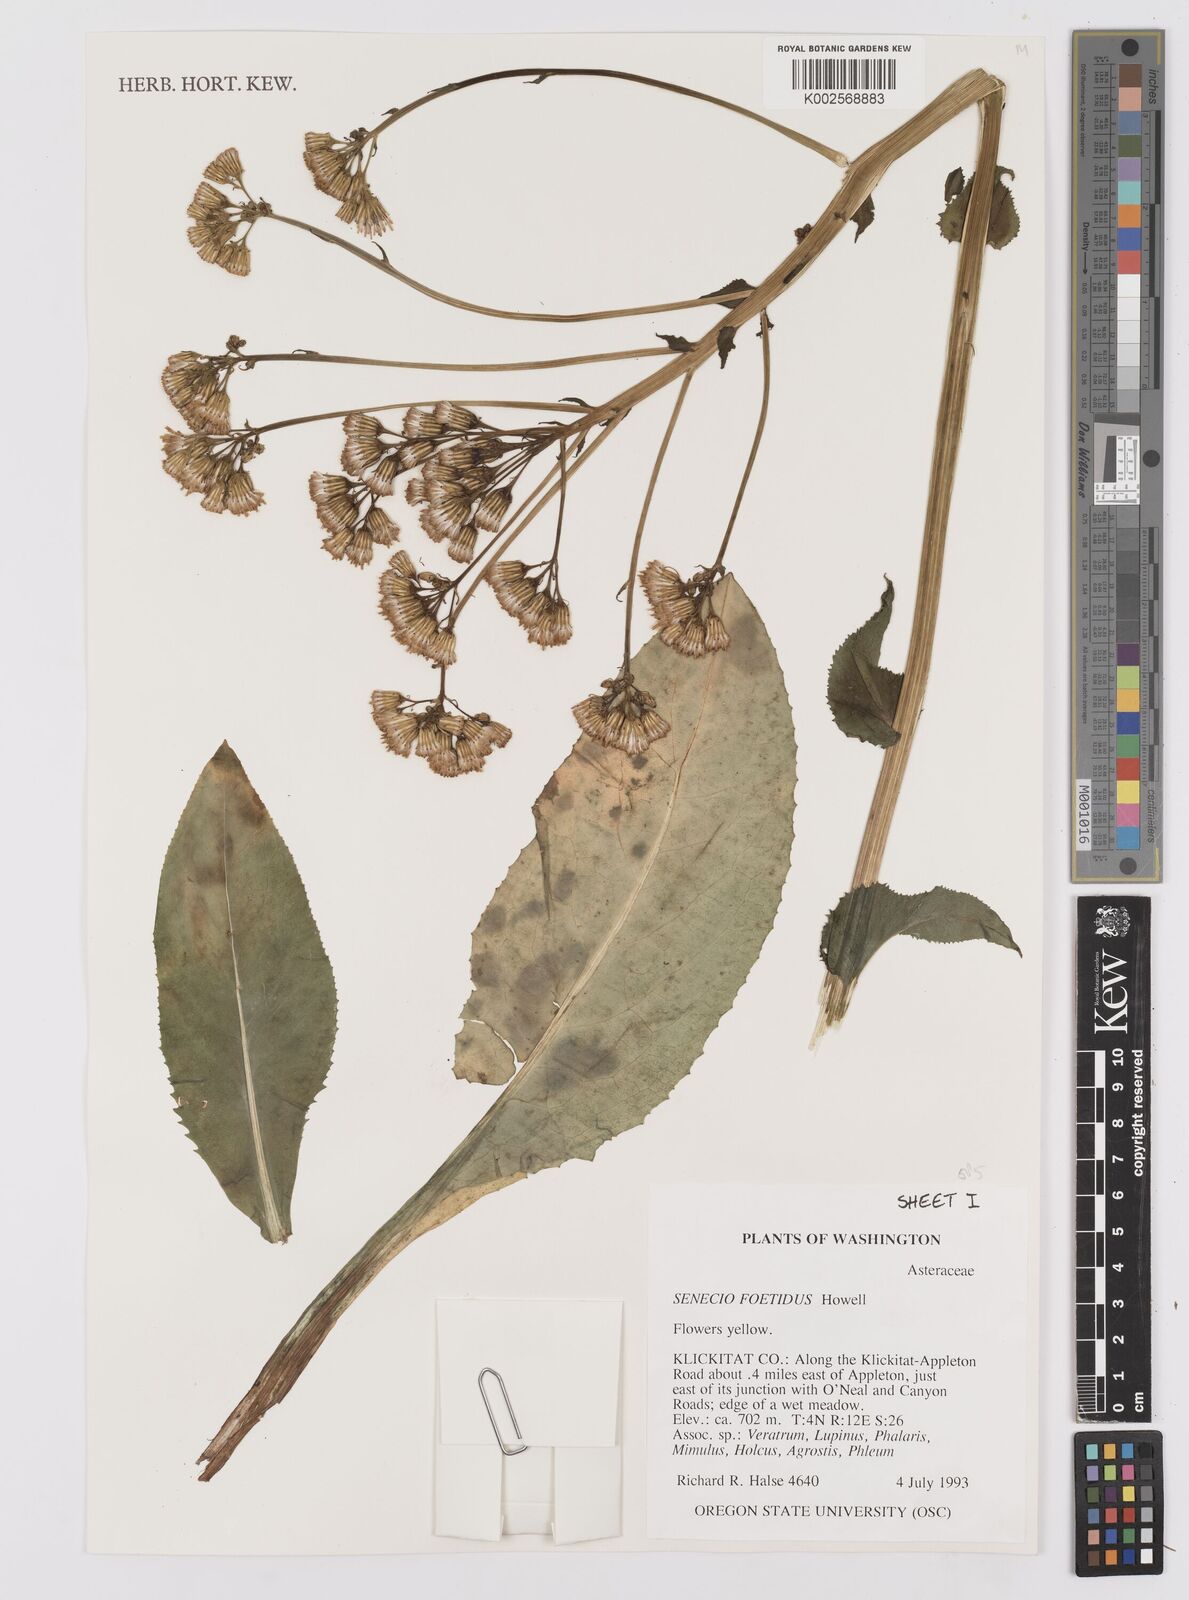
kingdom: Plantae
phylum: Tracheophyta
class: Magnoliopsida
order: Asterales
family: Asteraceae
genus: Senecio
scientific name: Senecio hydrophiloides
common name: Stout meadow groundsel
